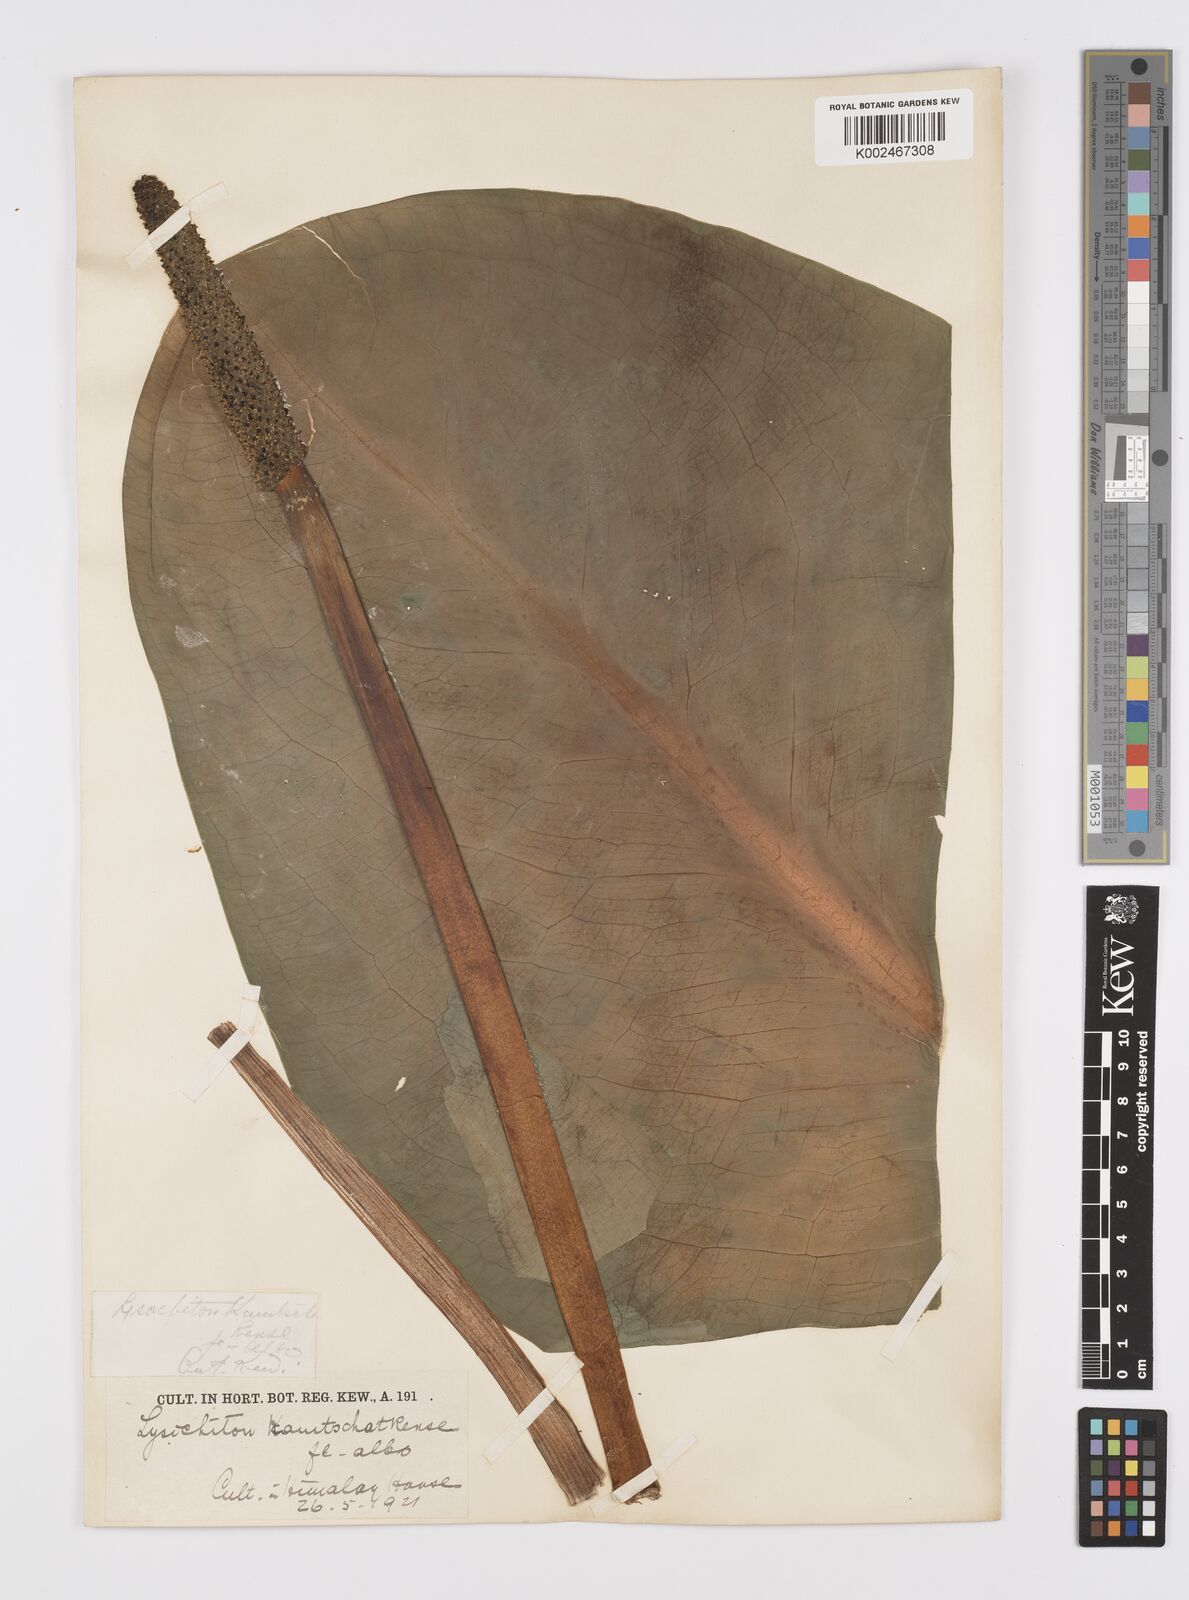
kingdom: Plantae
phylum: Tracheophyta
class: Liliopsida
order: Alismatales
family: Araceae
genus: Lysichiton
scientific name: Lysichiton camtschatcensis
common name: Asian skunk-cabbage
